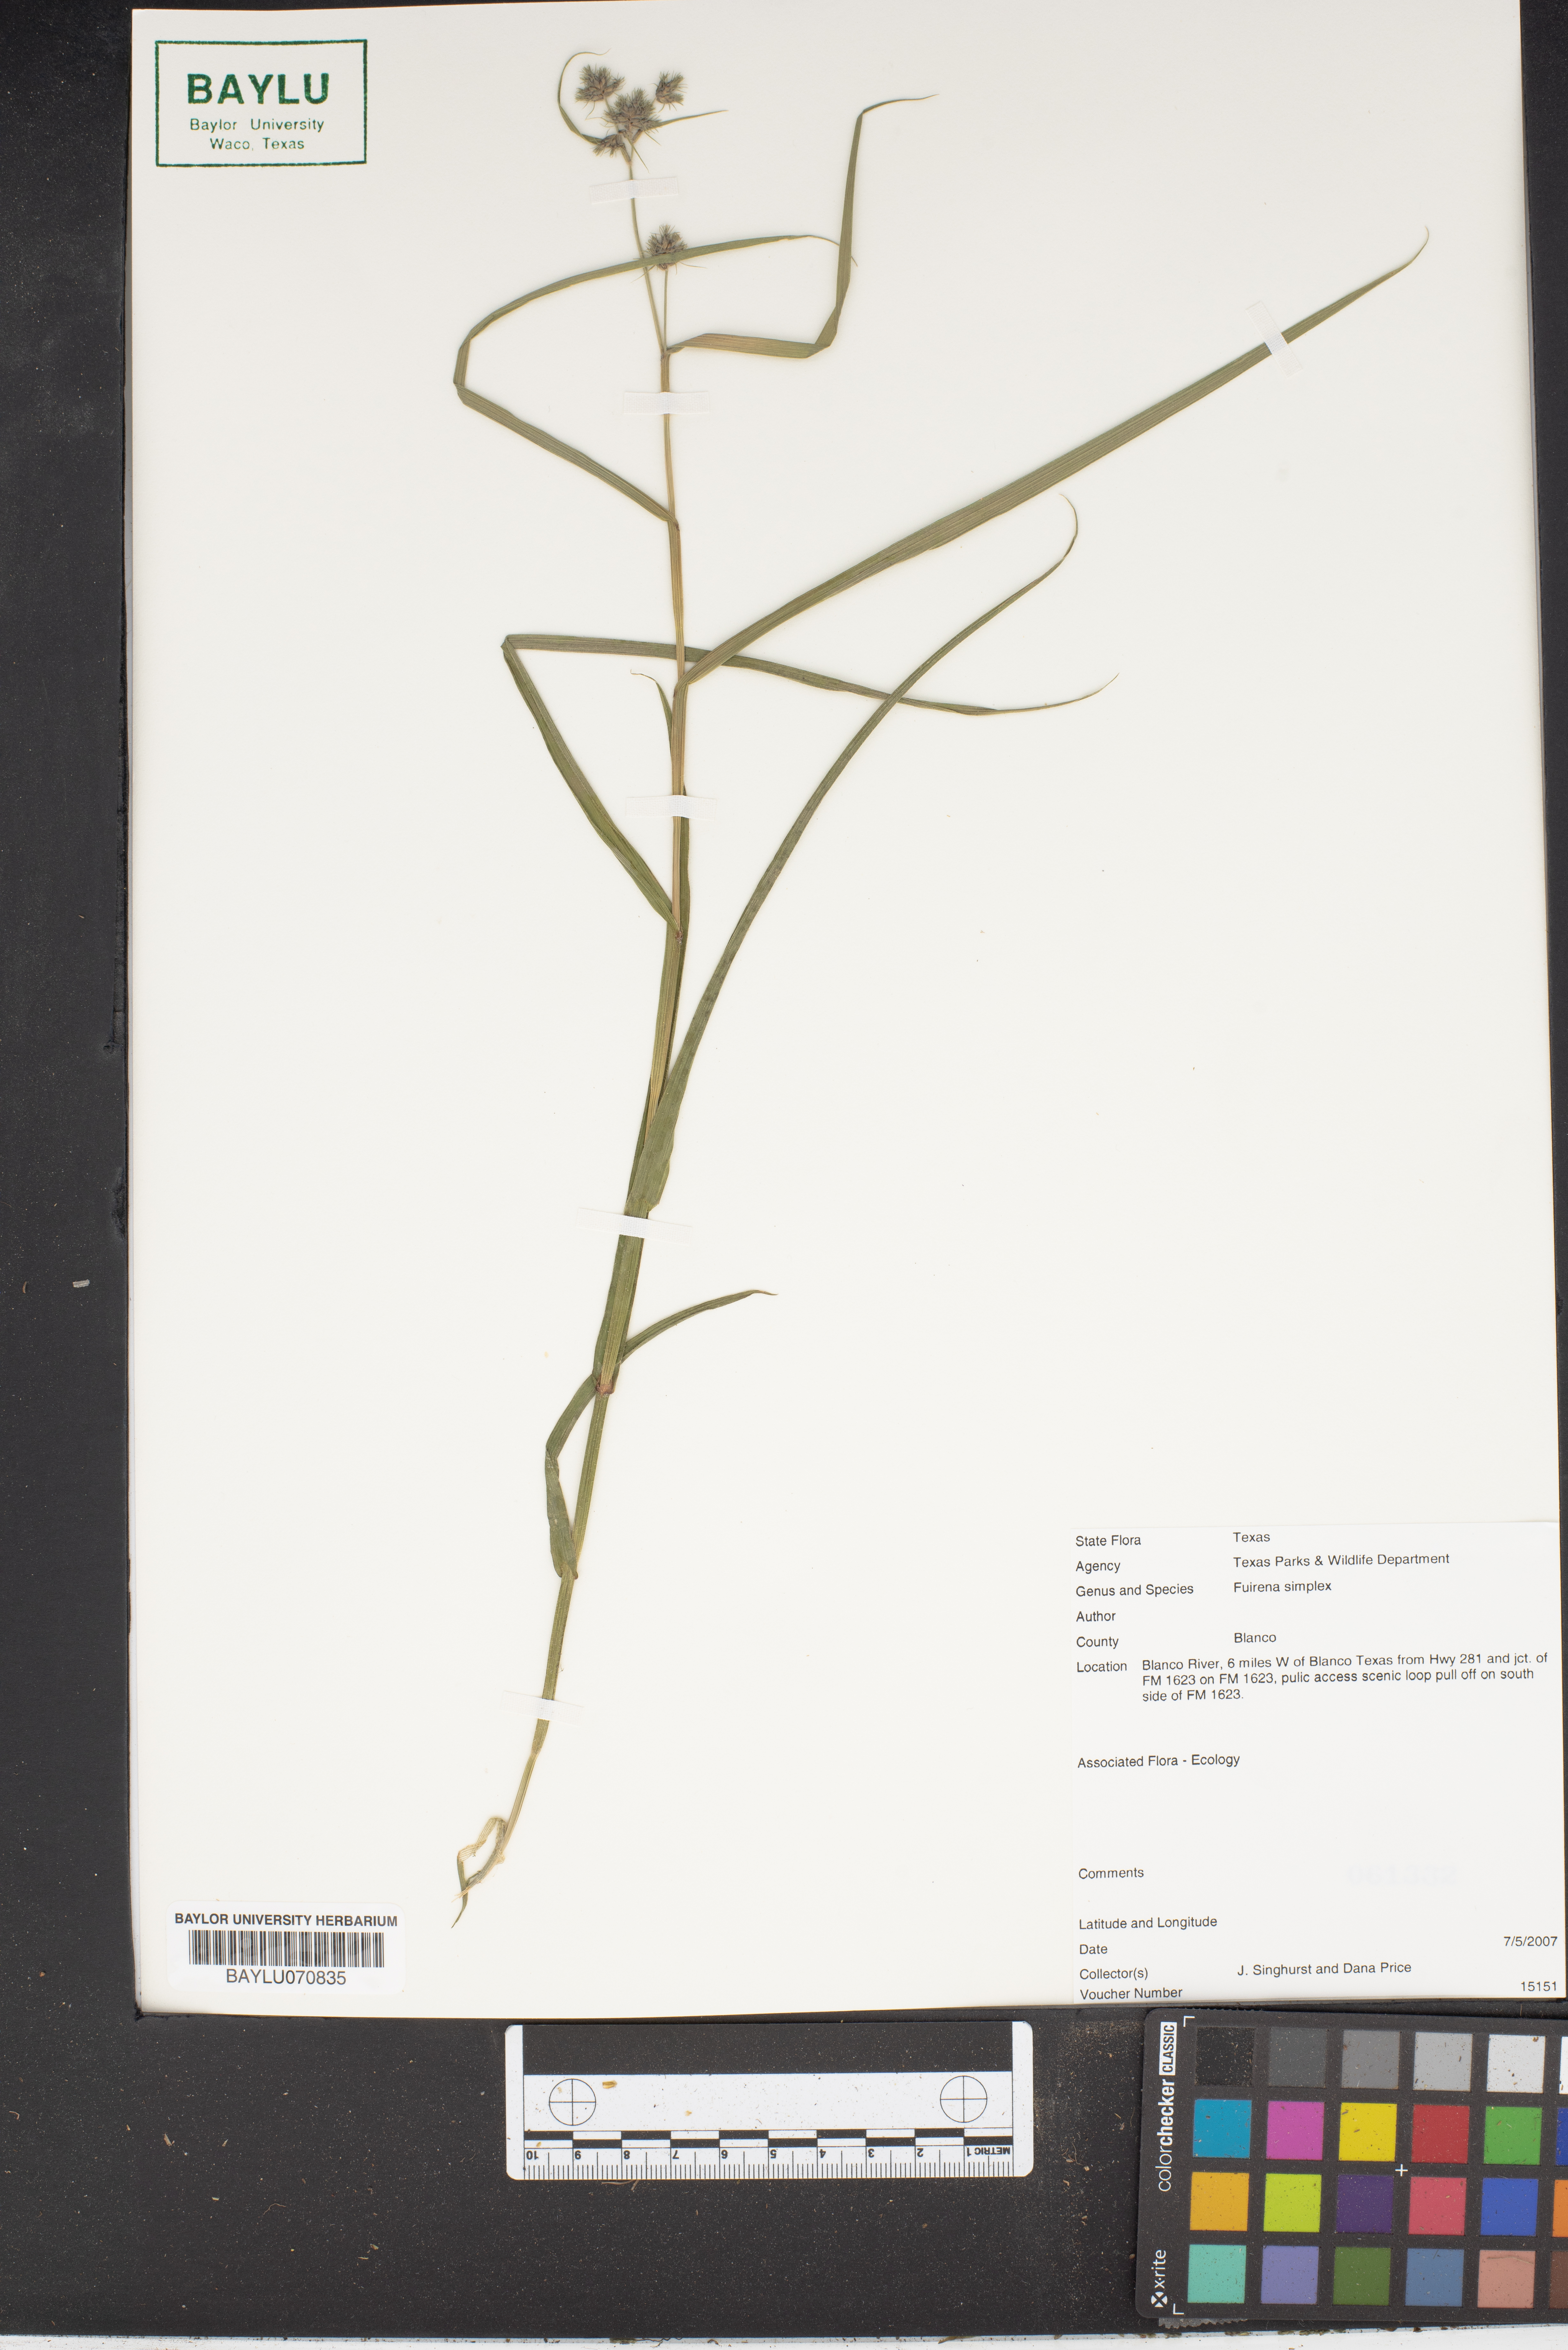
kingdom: Plantae
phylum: Tracheophyta
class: Liliopsida
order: Poales
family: Cyperaceae
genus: Fuirena
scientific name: Fuirena simplex
